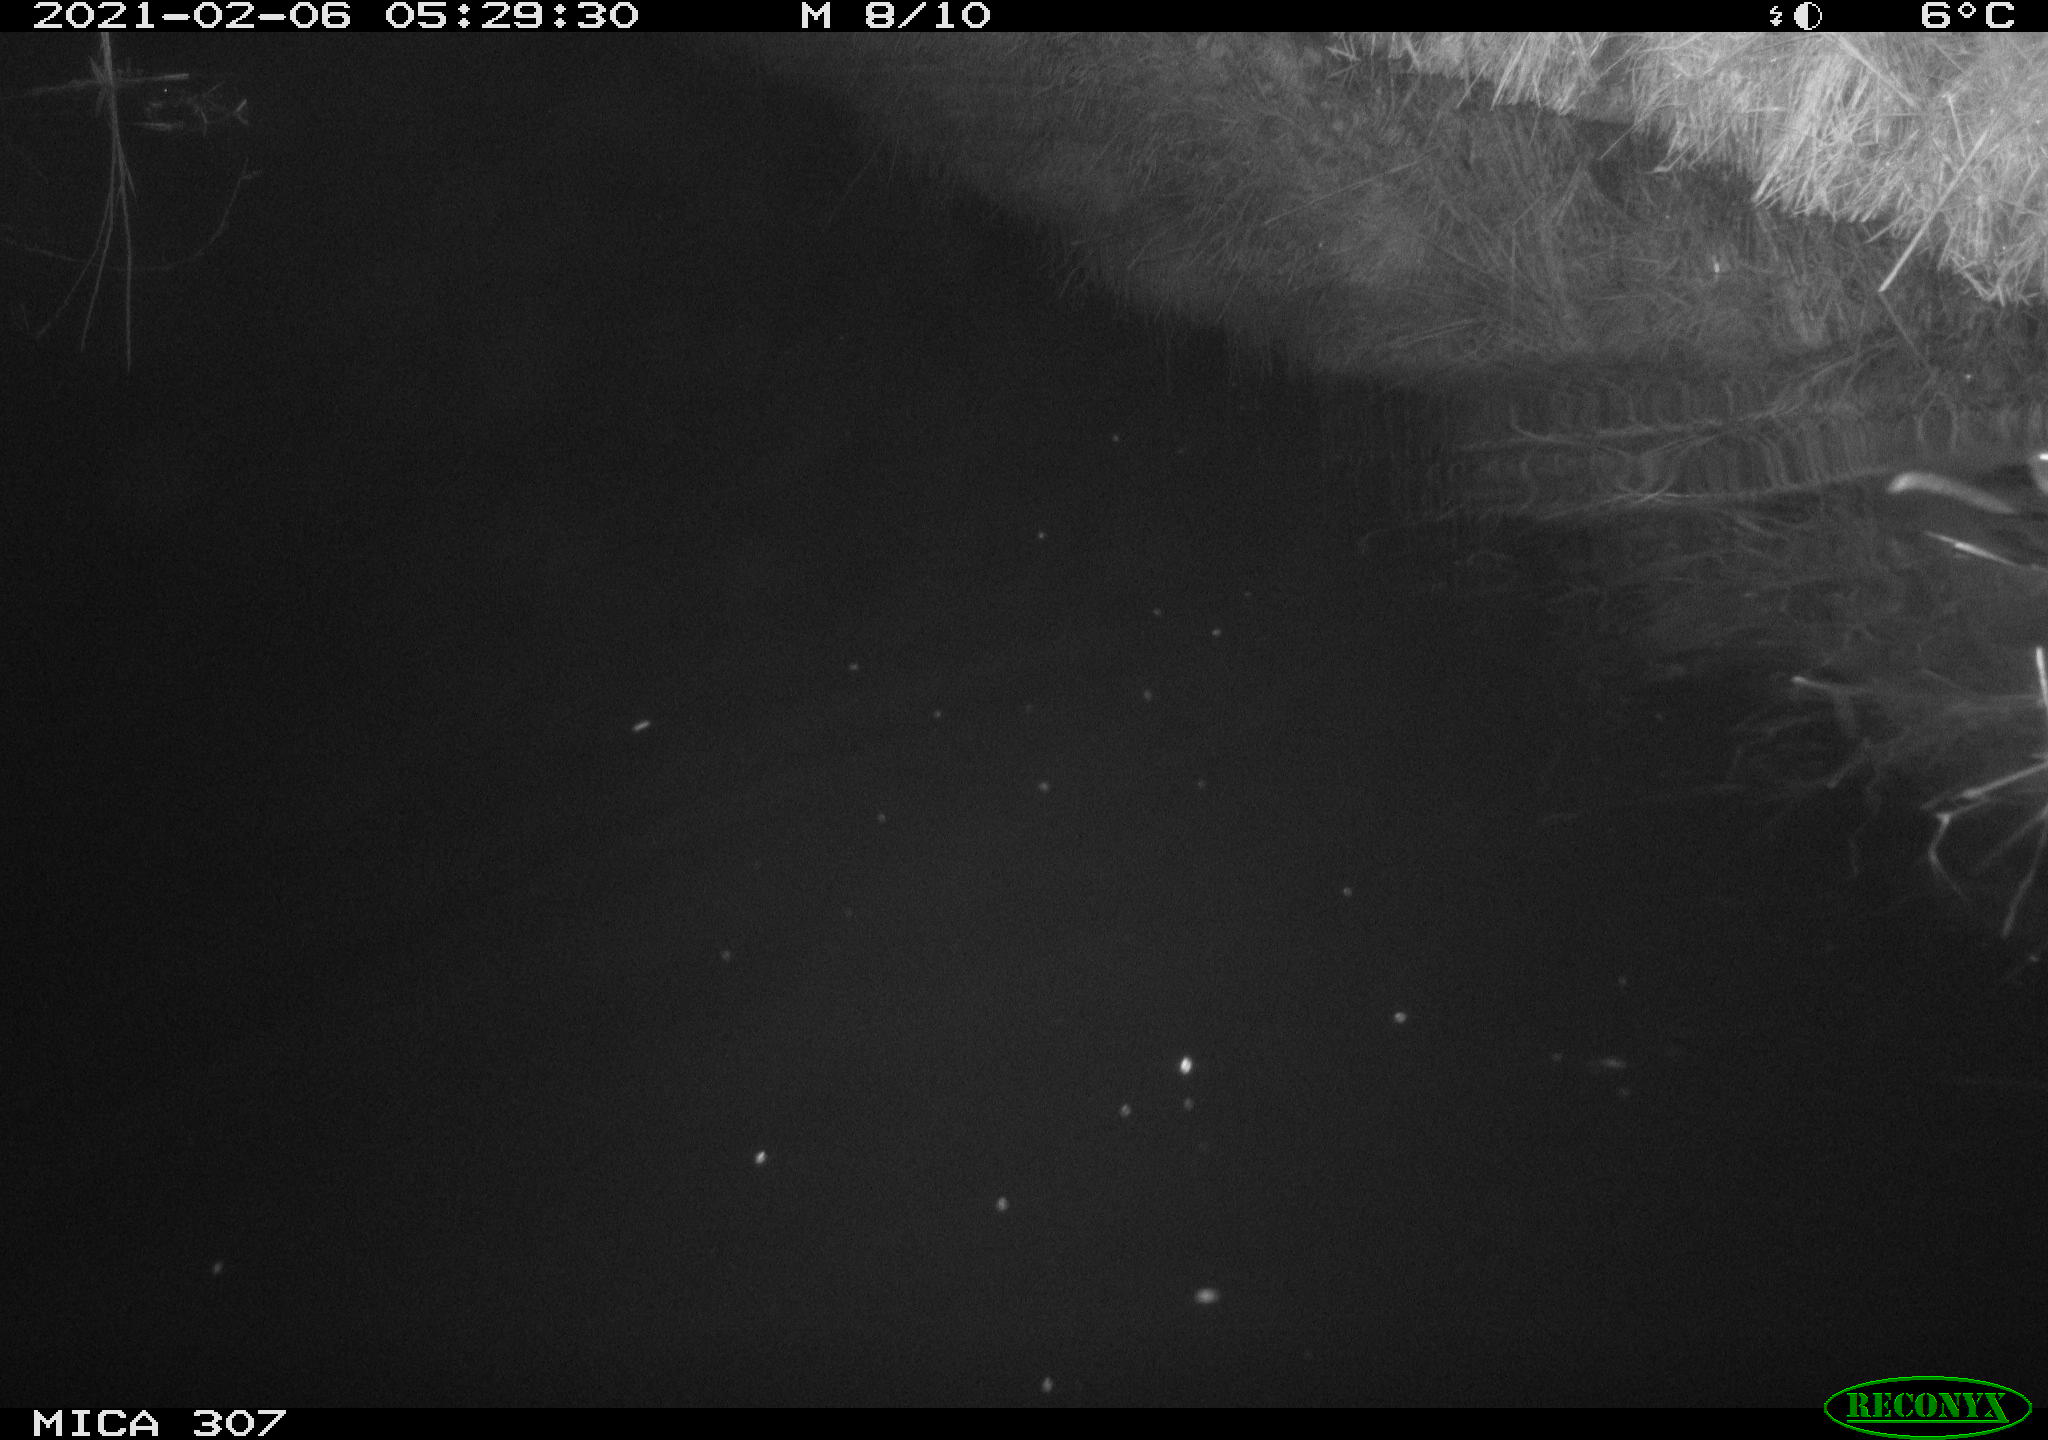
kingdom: Animalia
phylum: Chordata
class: Mammalia
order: Rodentia
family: Cricetidae
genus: Ondatra
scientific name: Ondatra zibethicus
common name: Muskrat
